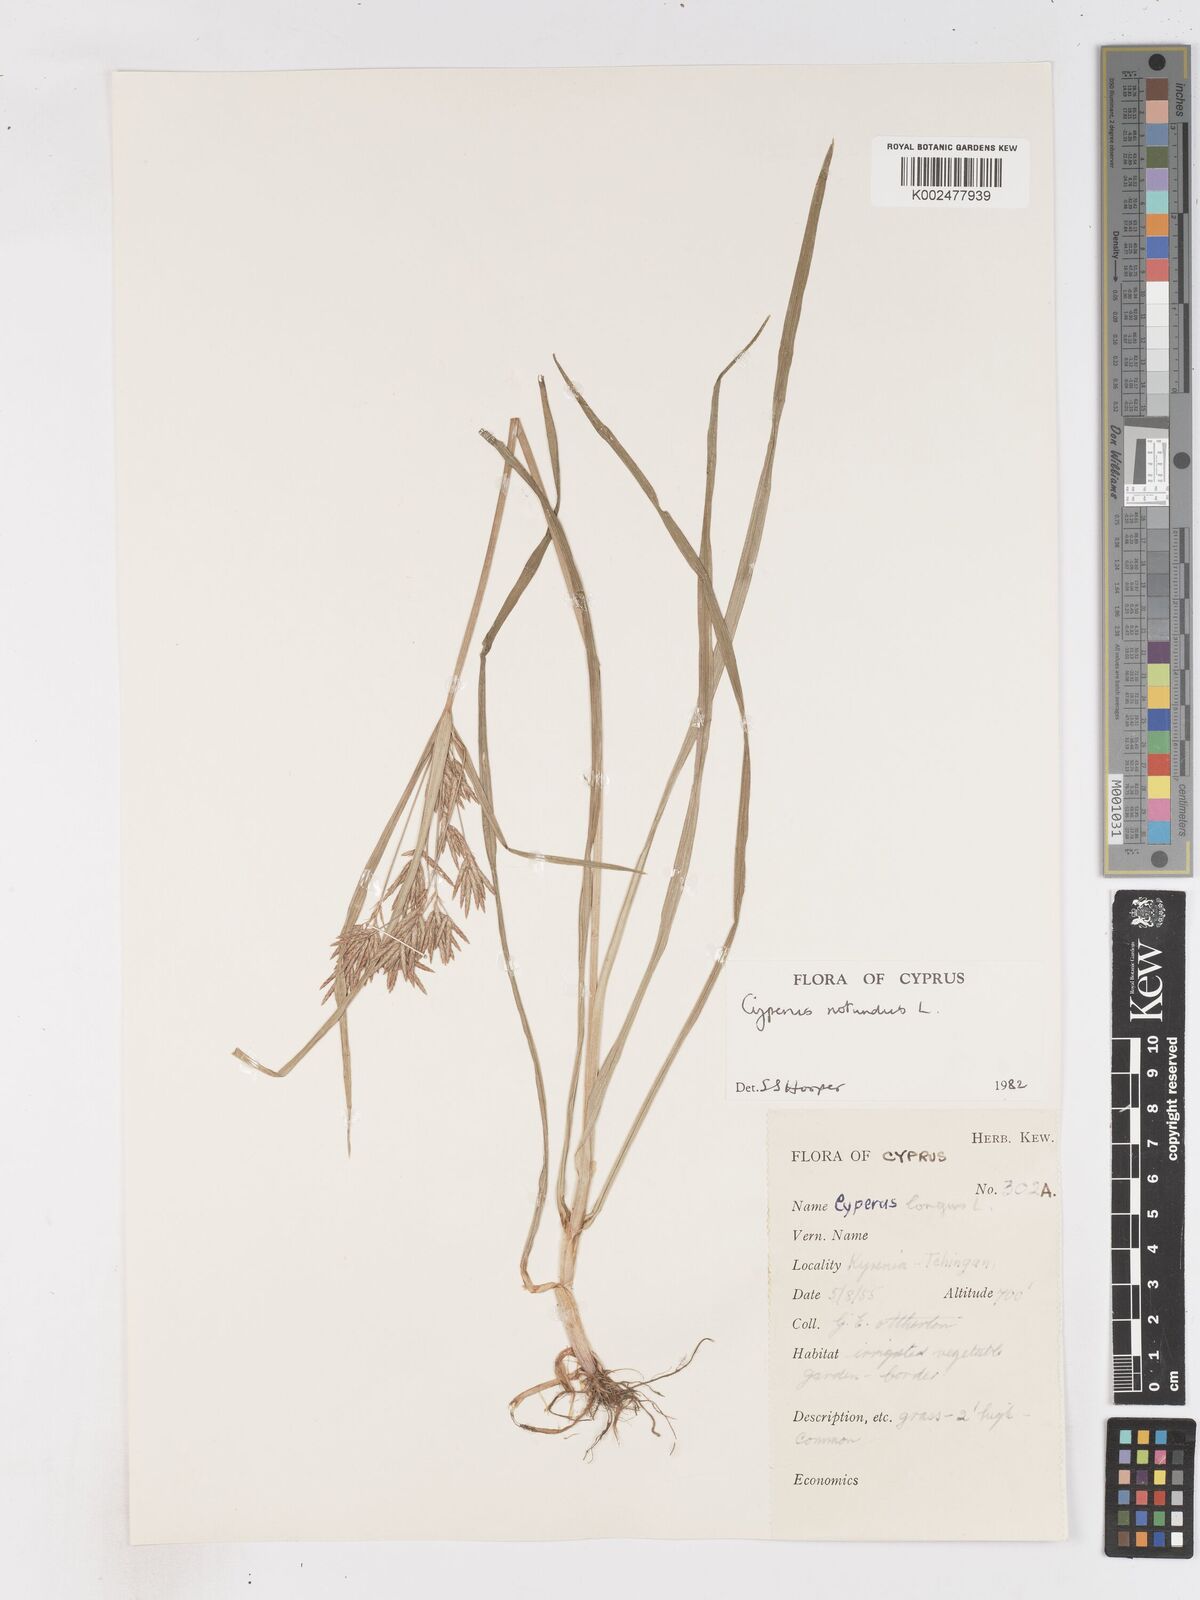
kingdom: Plantae
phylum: Tracheophyta
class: Liliopsida
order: Poales
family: Cyperaceae
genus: Cyperus
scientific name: Cyperus rotundus
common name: Nutgrass
